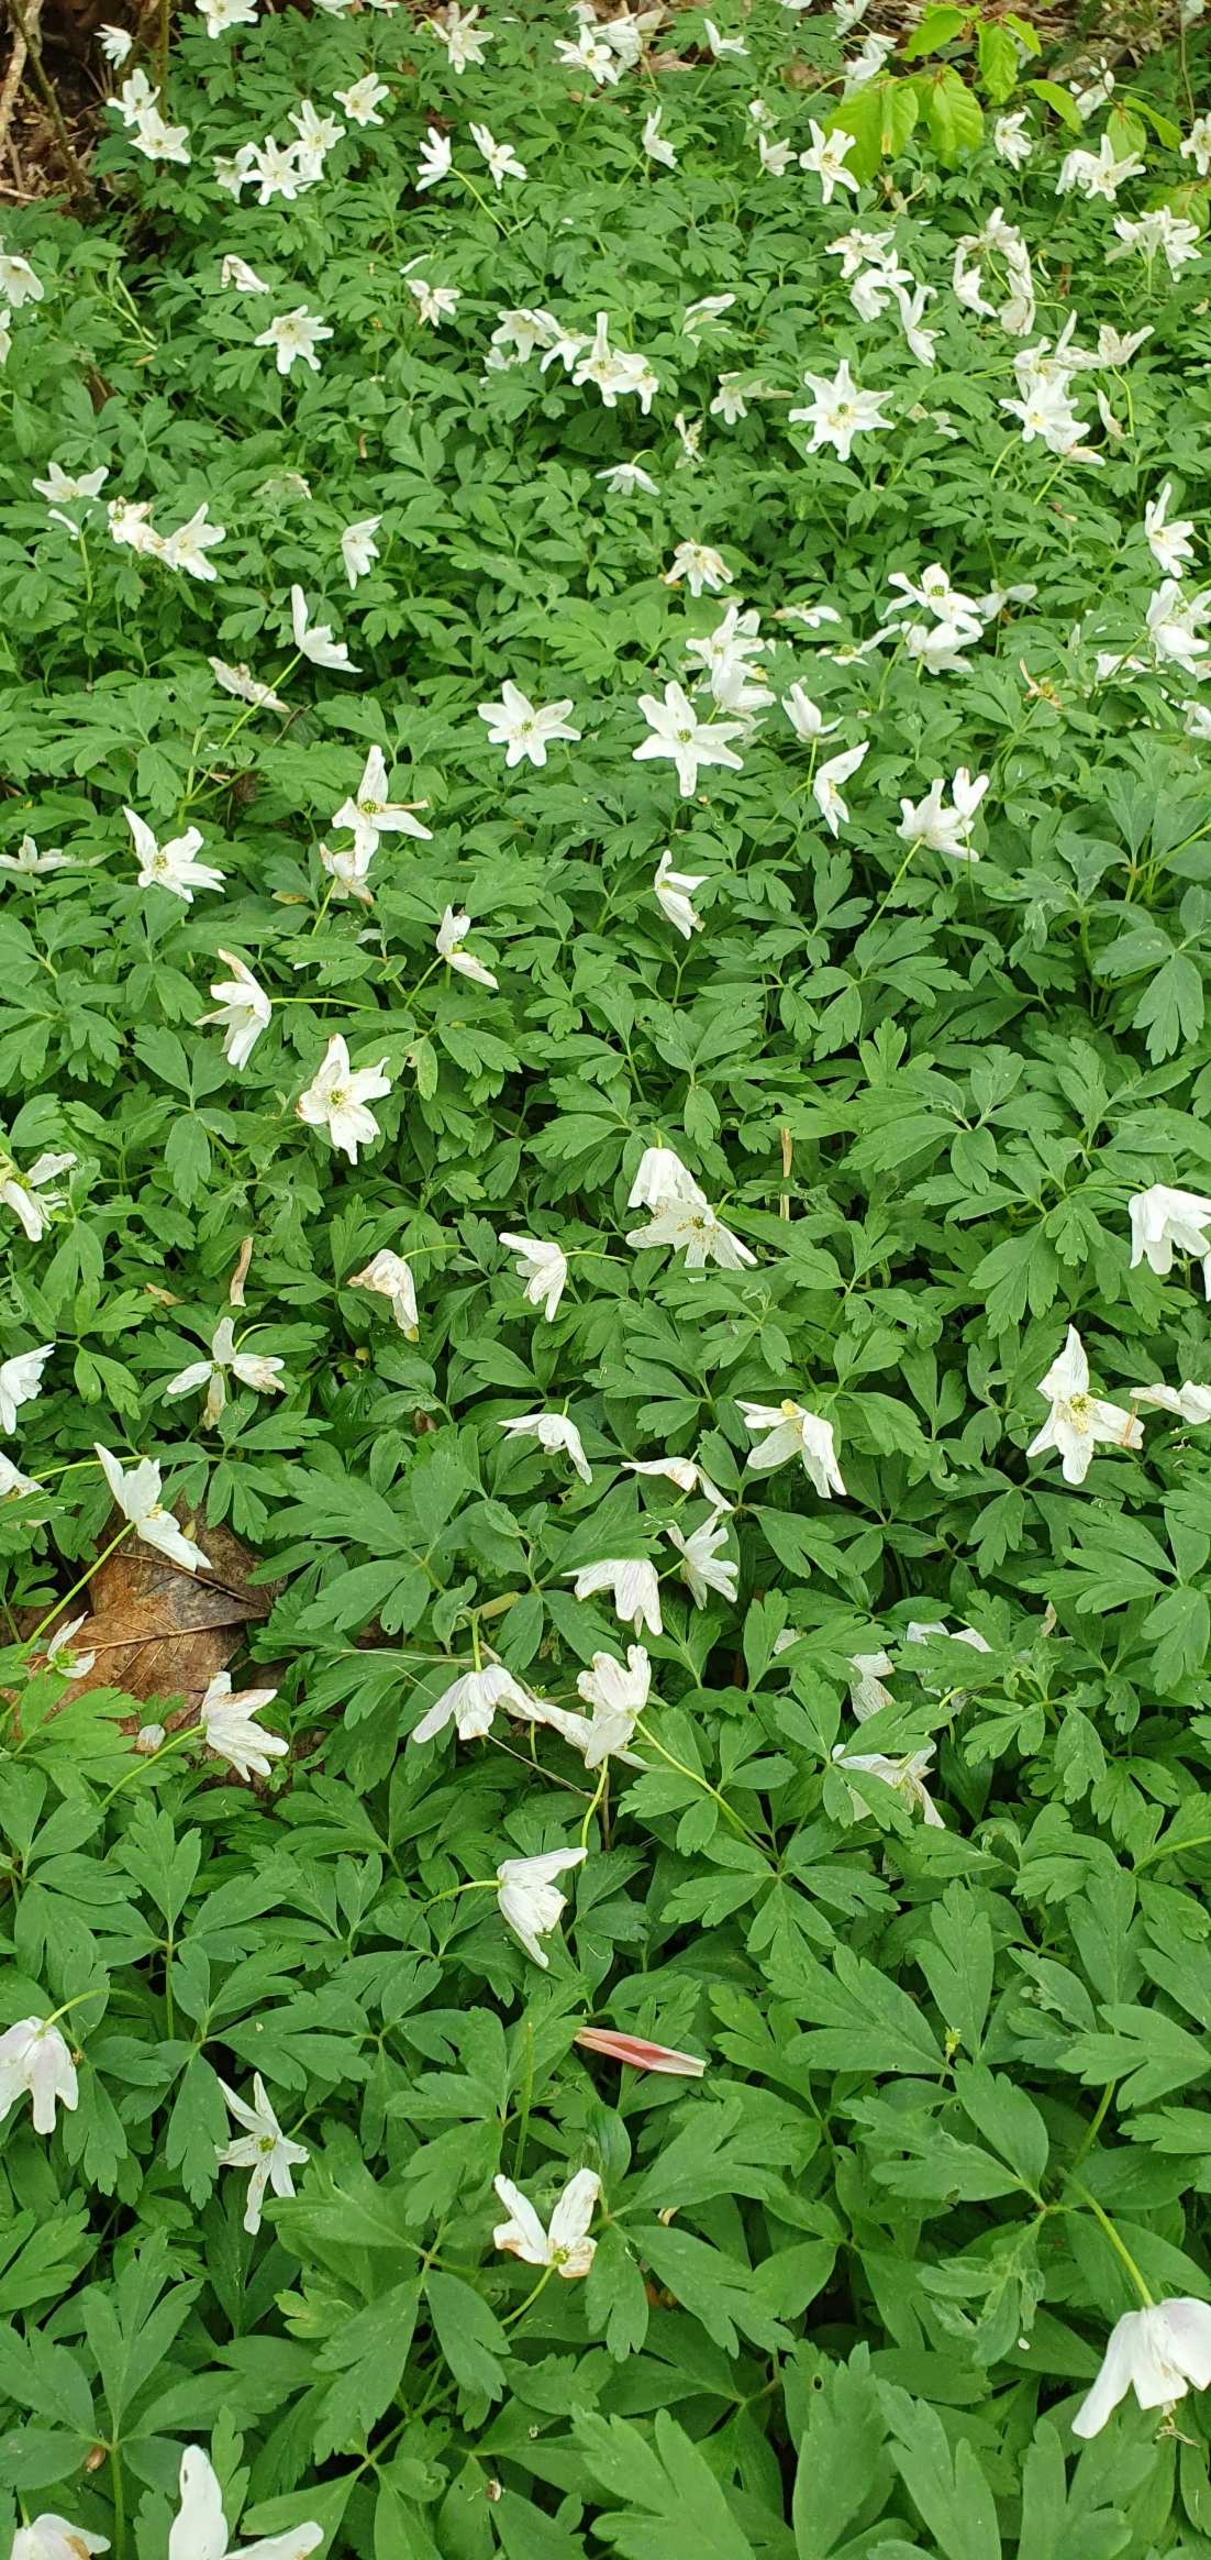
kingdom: Plantae
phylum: Tracheophyta
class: Magnoliopsida
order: Ranunculales
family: Ranunculaceae
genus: Anemone
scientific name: Anemone nemorosa
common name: Hvid anemone
